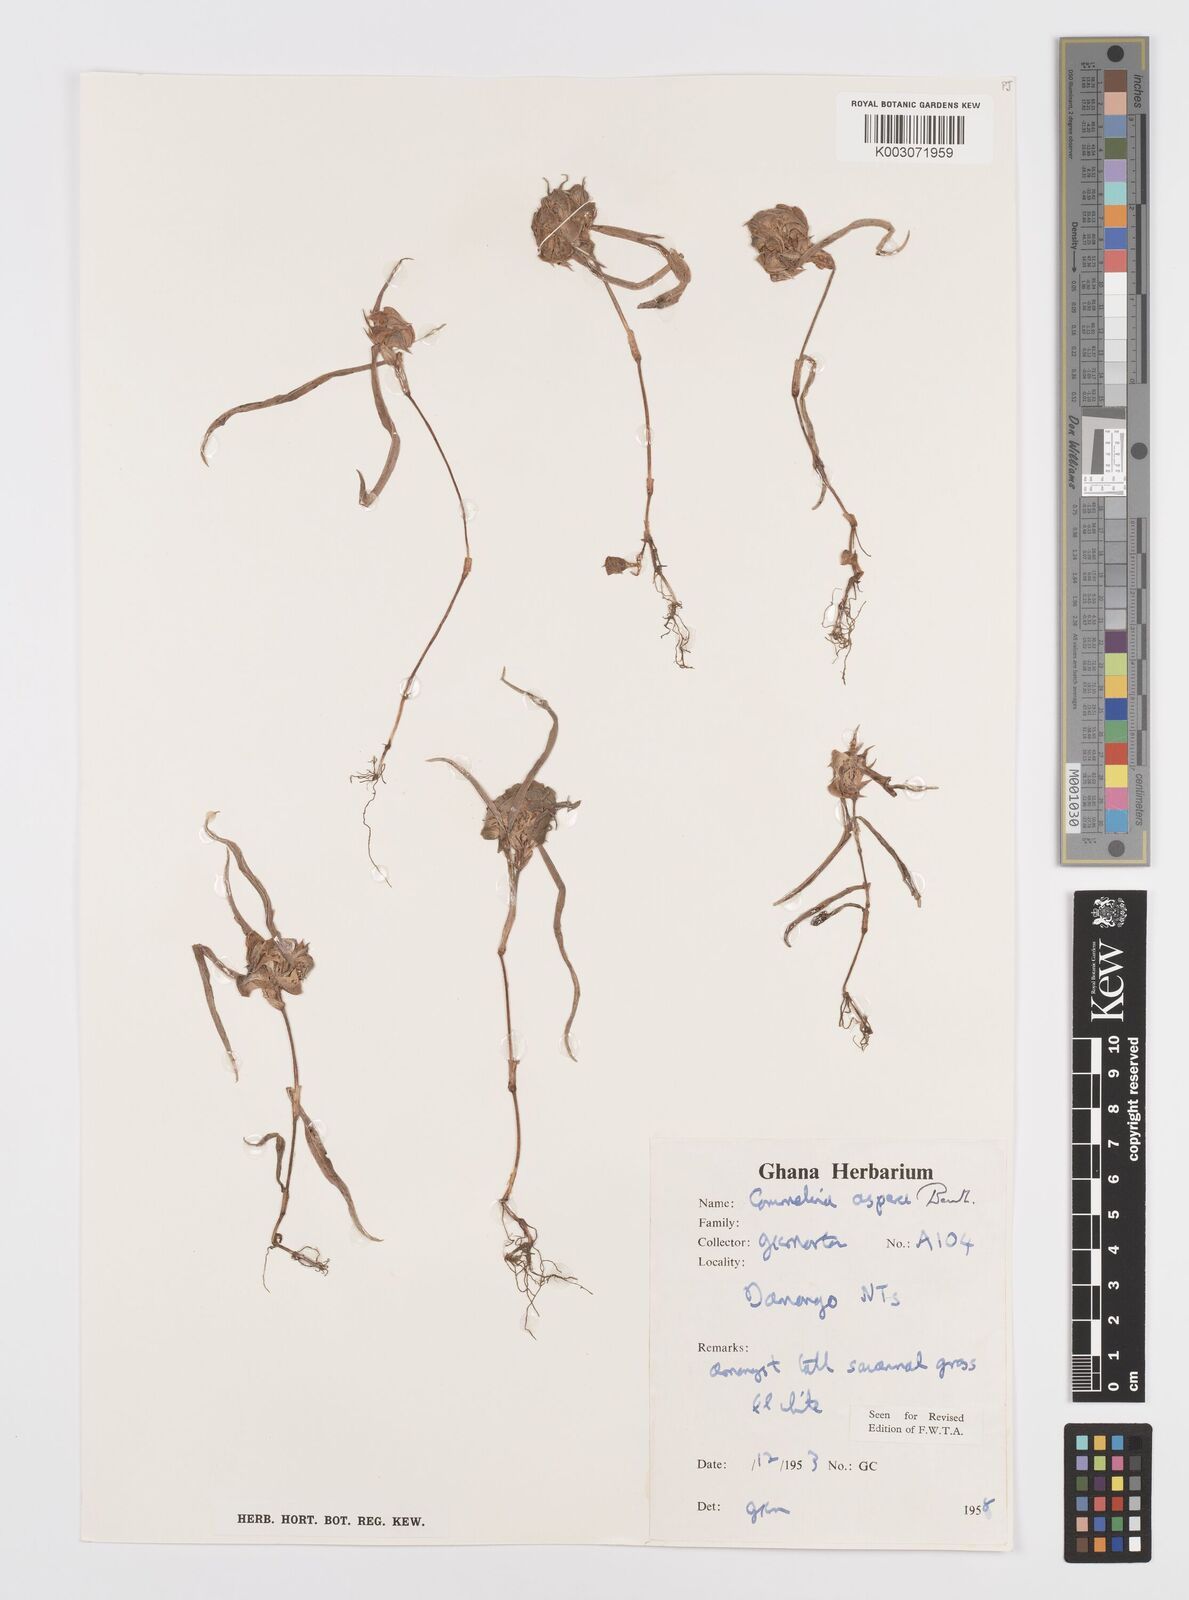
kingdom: Plantae
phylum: Tracheophyta
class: Liliopsida
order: Commelinales
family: Commelinaceae
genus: Commelina
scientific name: Commelina aspera
